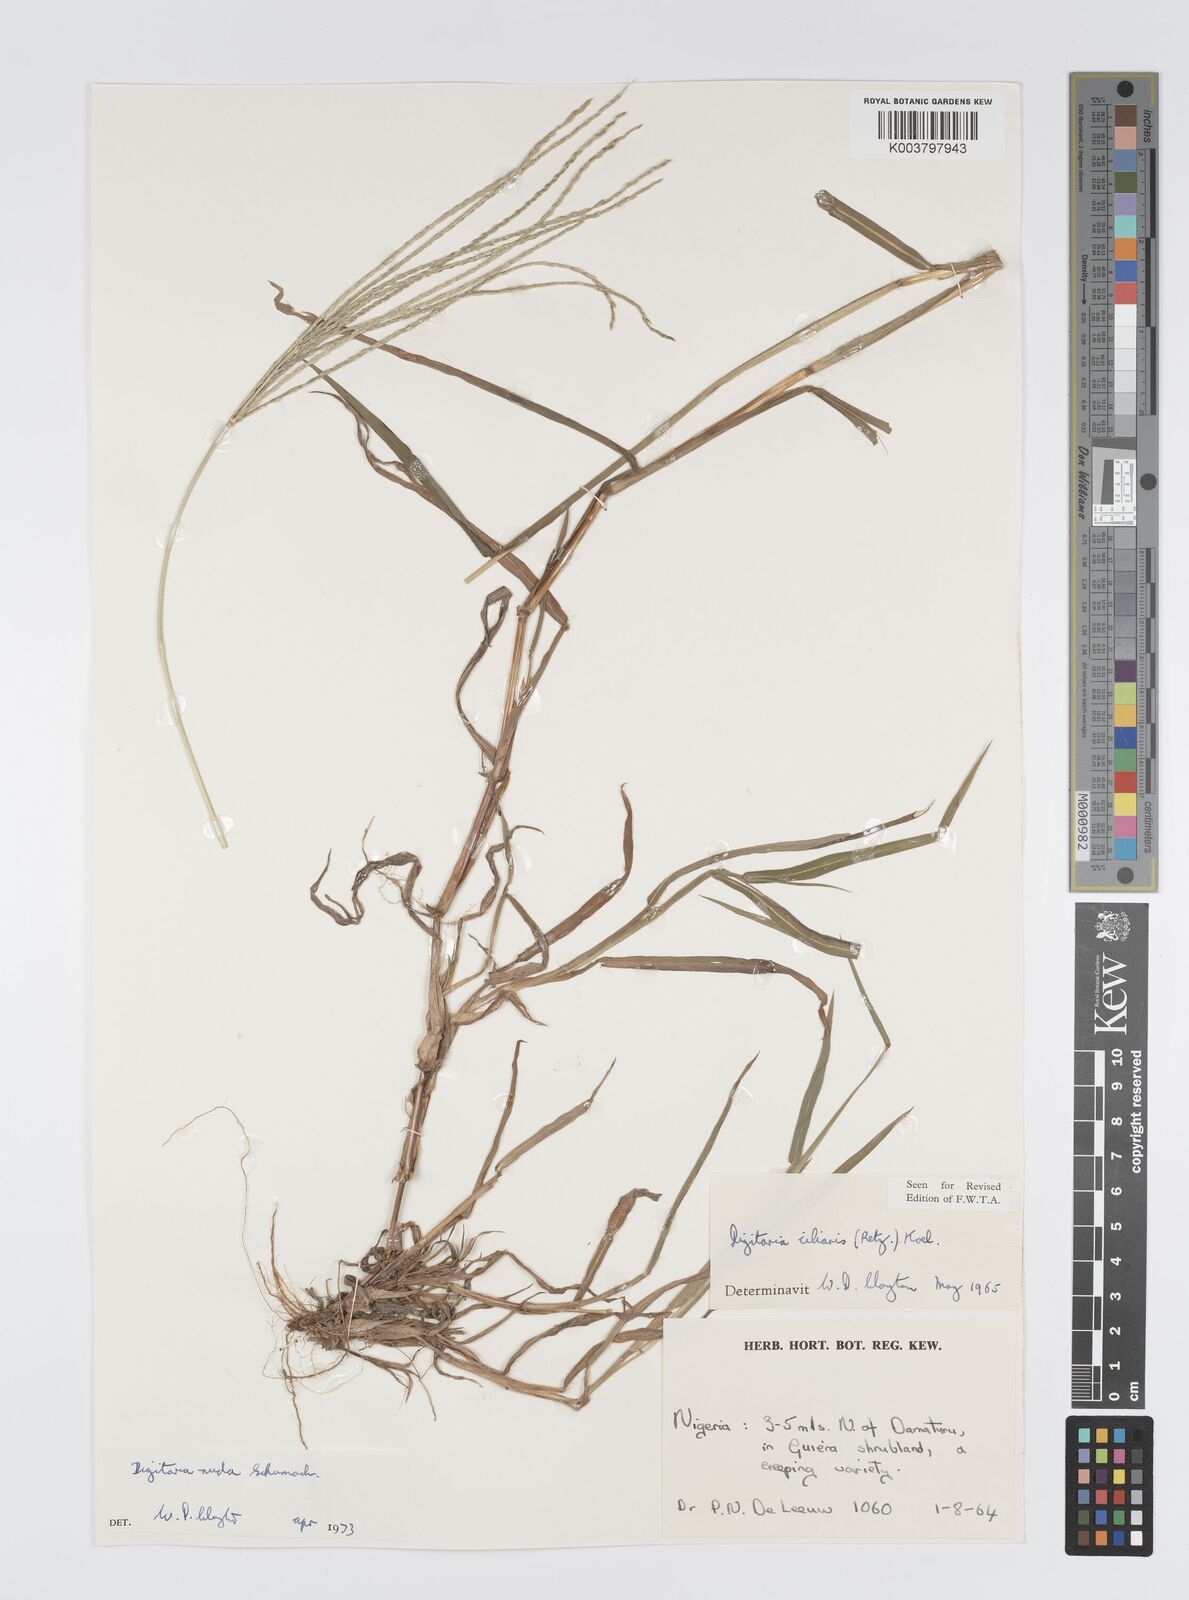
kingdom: Plantae
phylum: Tracheophyta
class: Liliopsida
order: Poales
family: Poaceae
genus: Digitaria
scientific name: Digitaria nuda
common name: Naked crabgrass
